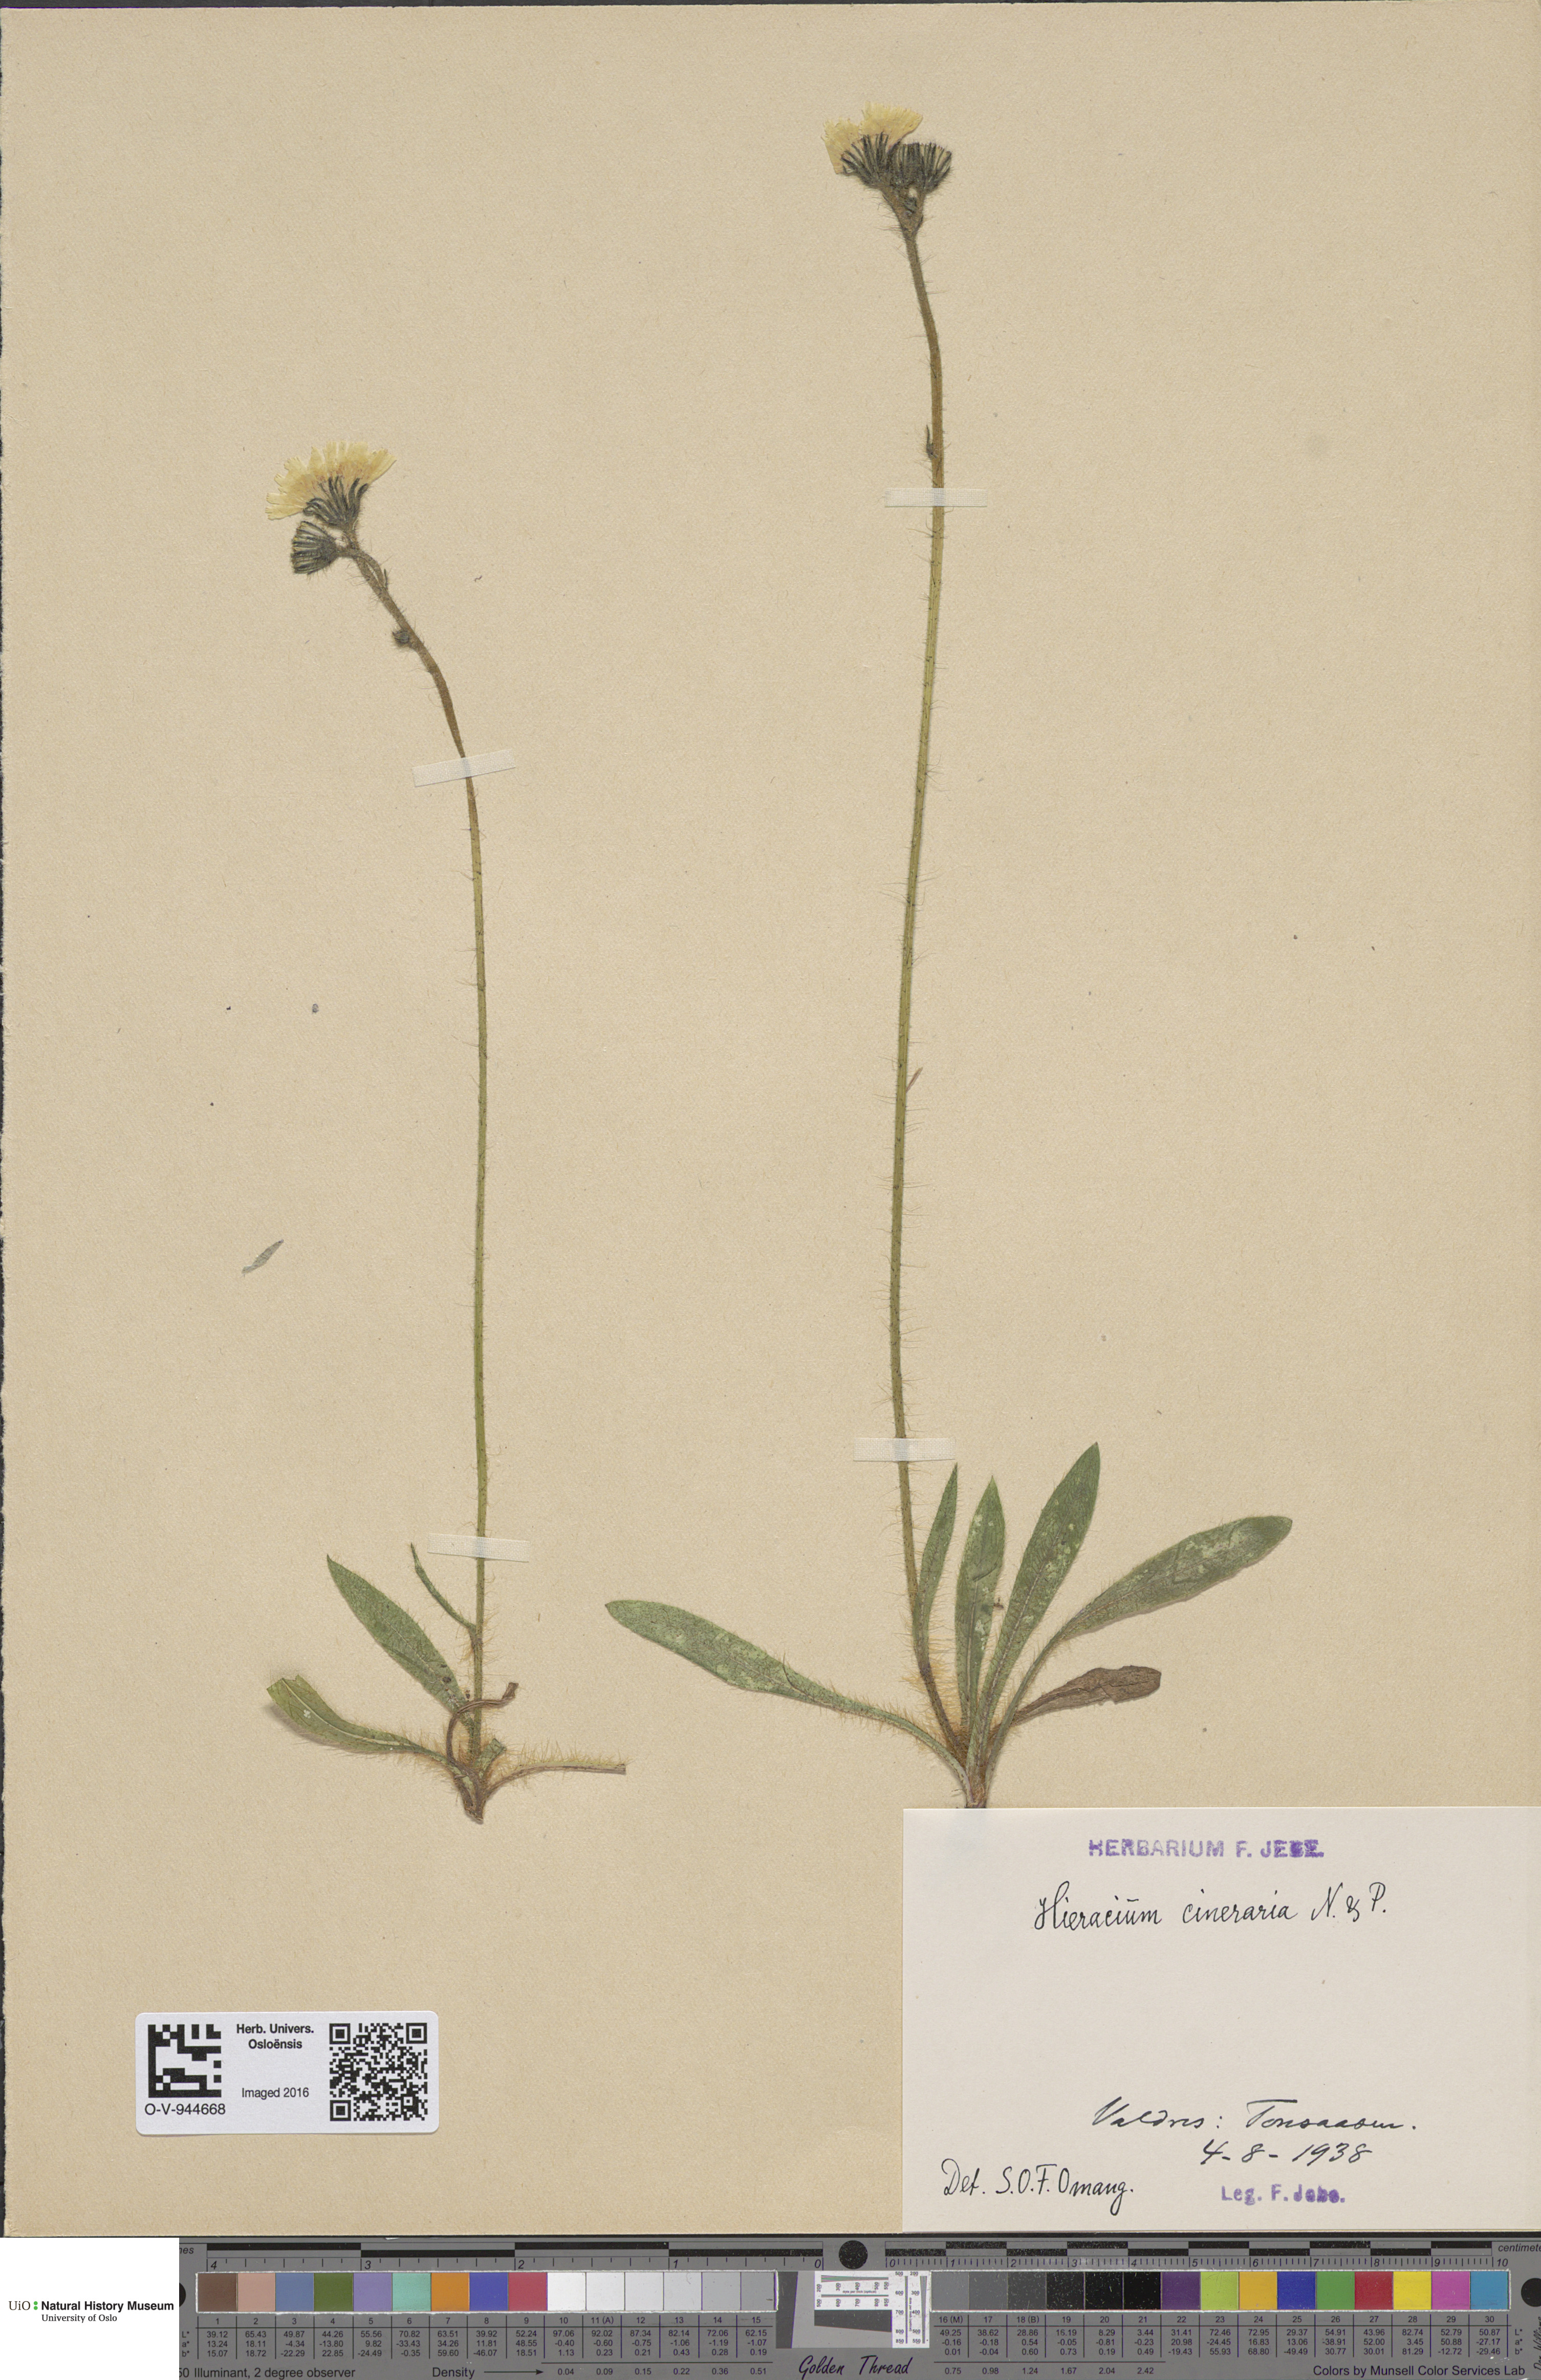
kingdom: Plantae
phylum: Tracheophyta
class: Magnoliopsida
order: Asterales
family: Asteraceae
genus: Pilosella
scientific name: Pilosella moechiadia
